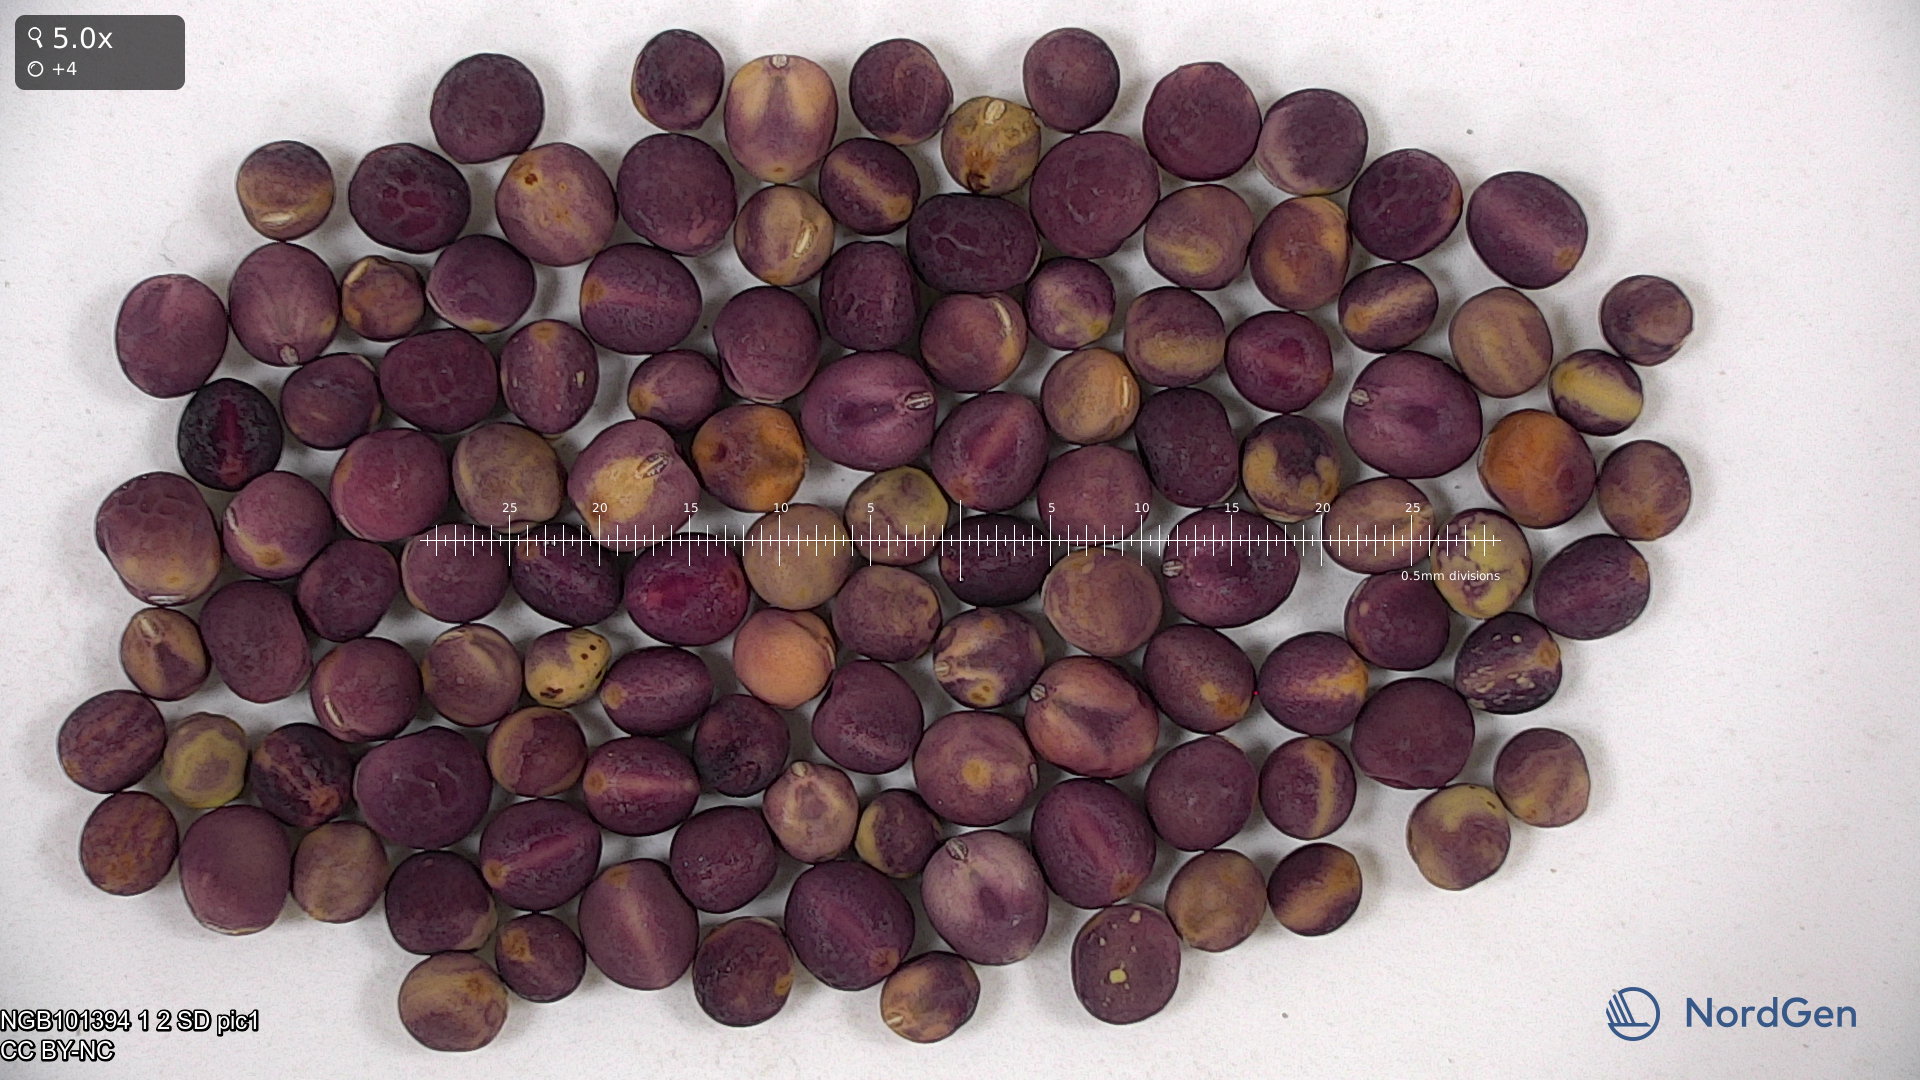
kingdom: Plantae
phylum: Tracheophyta
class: Magnoliopsida
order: Fabales
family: Fabaceae
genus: Lathyrus
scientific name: Lathyrus oleraceus
